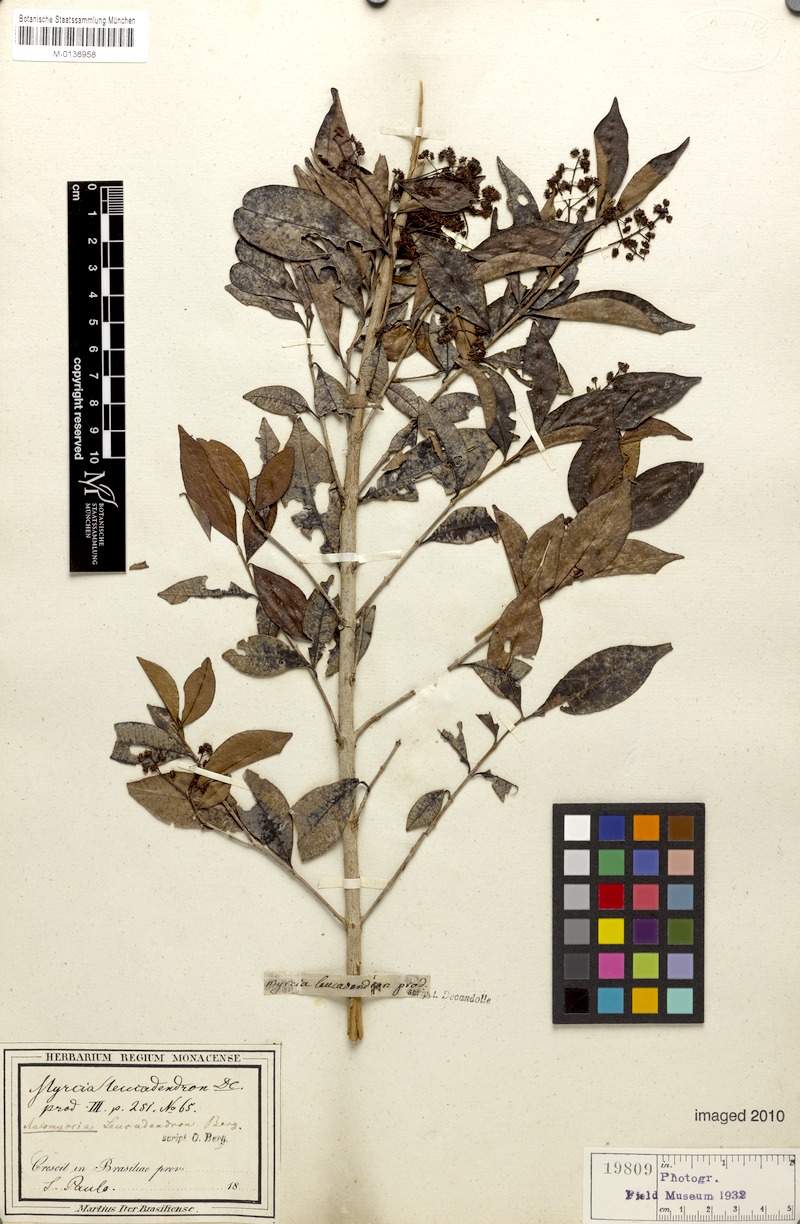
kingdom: Plantae
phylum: Tracheophyta
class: Magnoliopsida
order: Myrtales
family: Myrtaceae
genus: Myrcia
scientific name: Myrcia leucadendron
